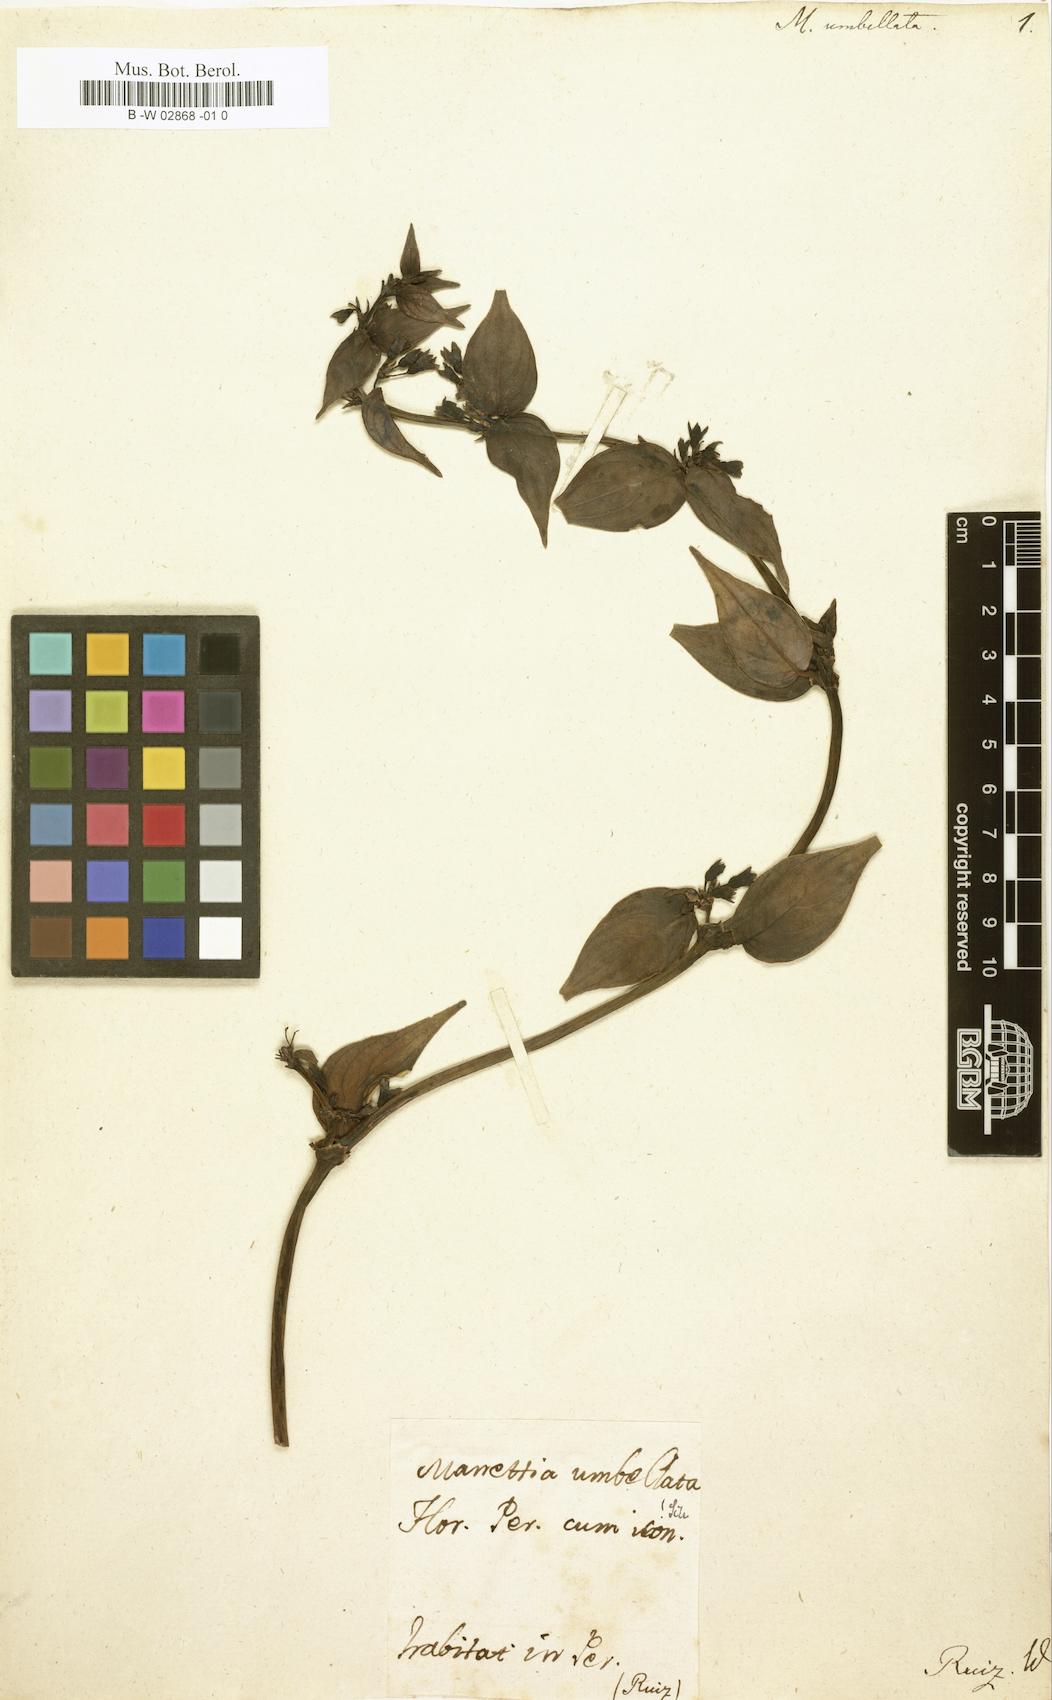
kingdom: Plantae
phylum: Tracheophyta
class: Magnoliopsida
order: Gentianales
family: Rubiaceae
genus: Manettia
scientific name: Manettia umbellata
